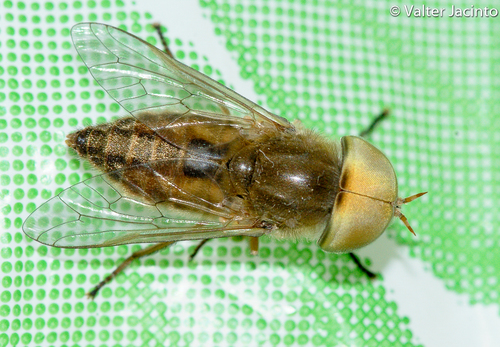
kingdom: Animalia
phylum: Arthropoda
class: Insecta
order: Diptera
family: Tabanidae
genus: Atylotus
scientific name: Atylotus flavoguttatus
